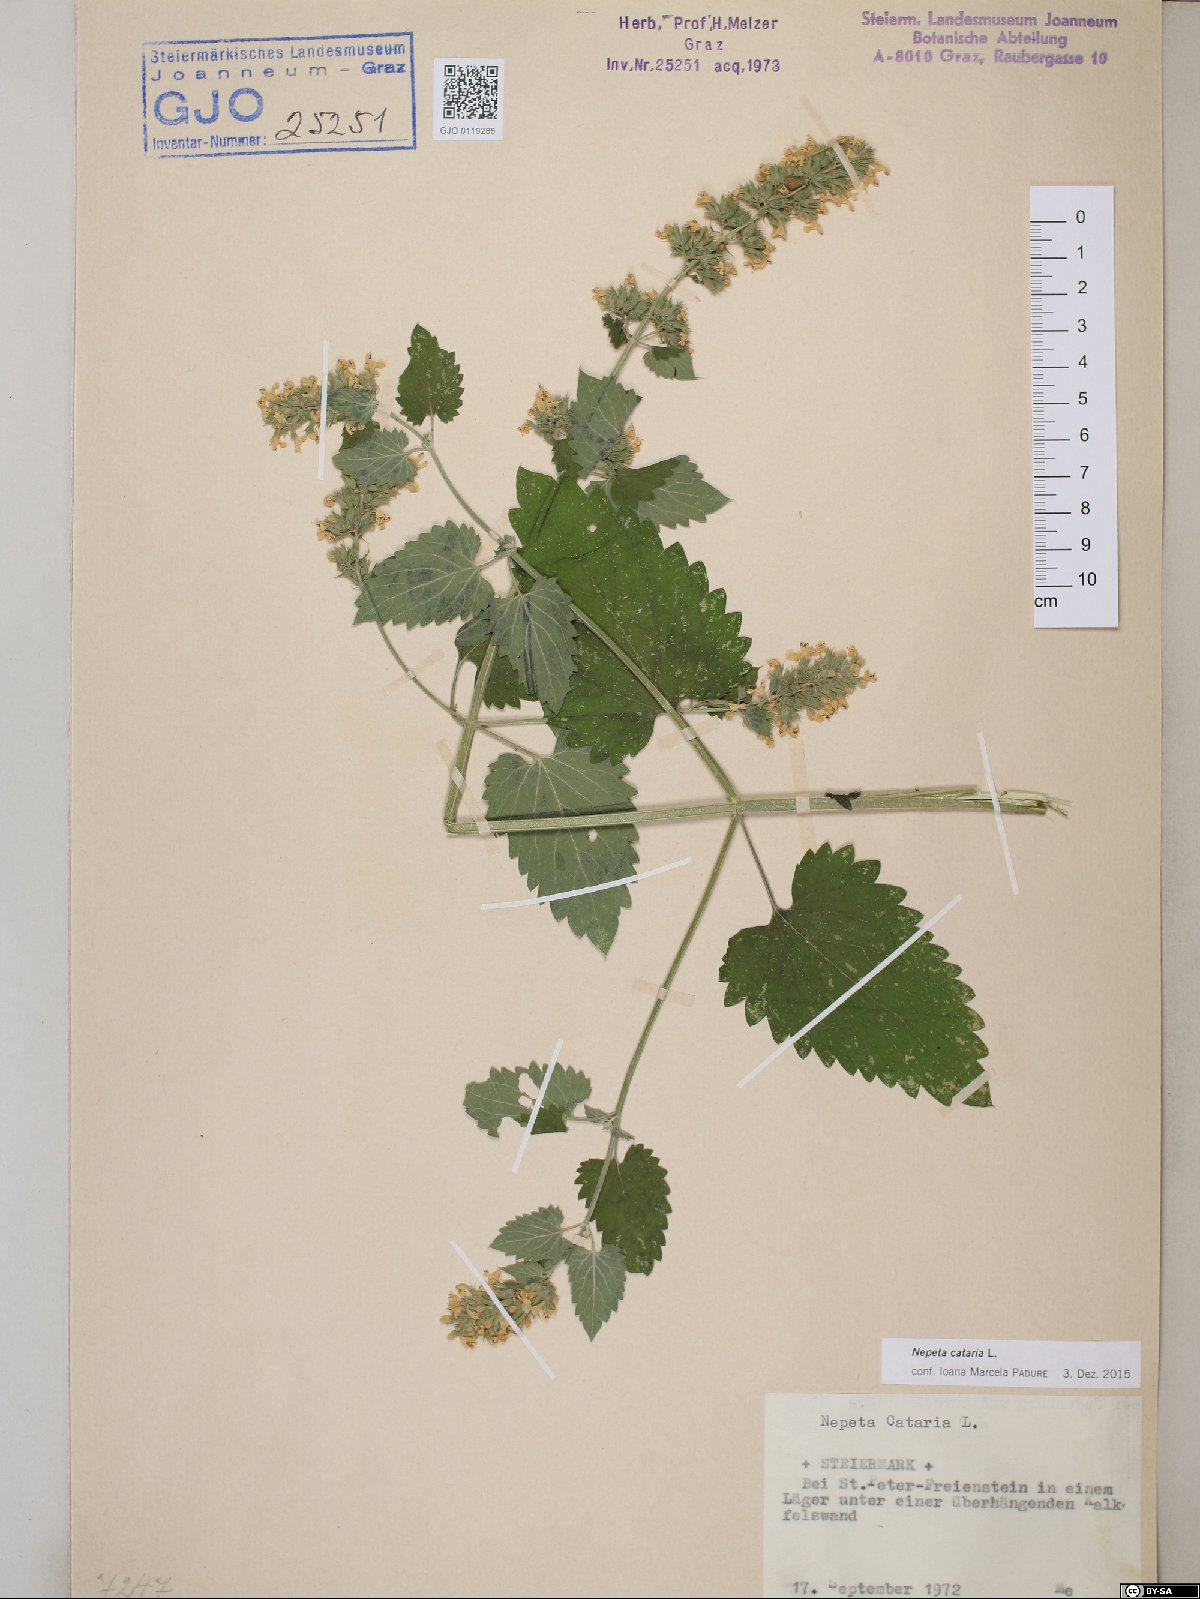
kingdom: Plantae
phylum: Tracheophyta
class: Magnoliopsida
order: Lamiales
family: Lamiaceae
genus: Nepeta
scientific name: Nepeta cataria
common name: Catnip
